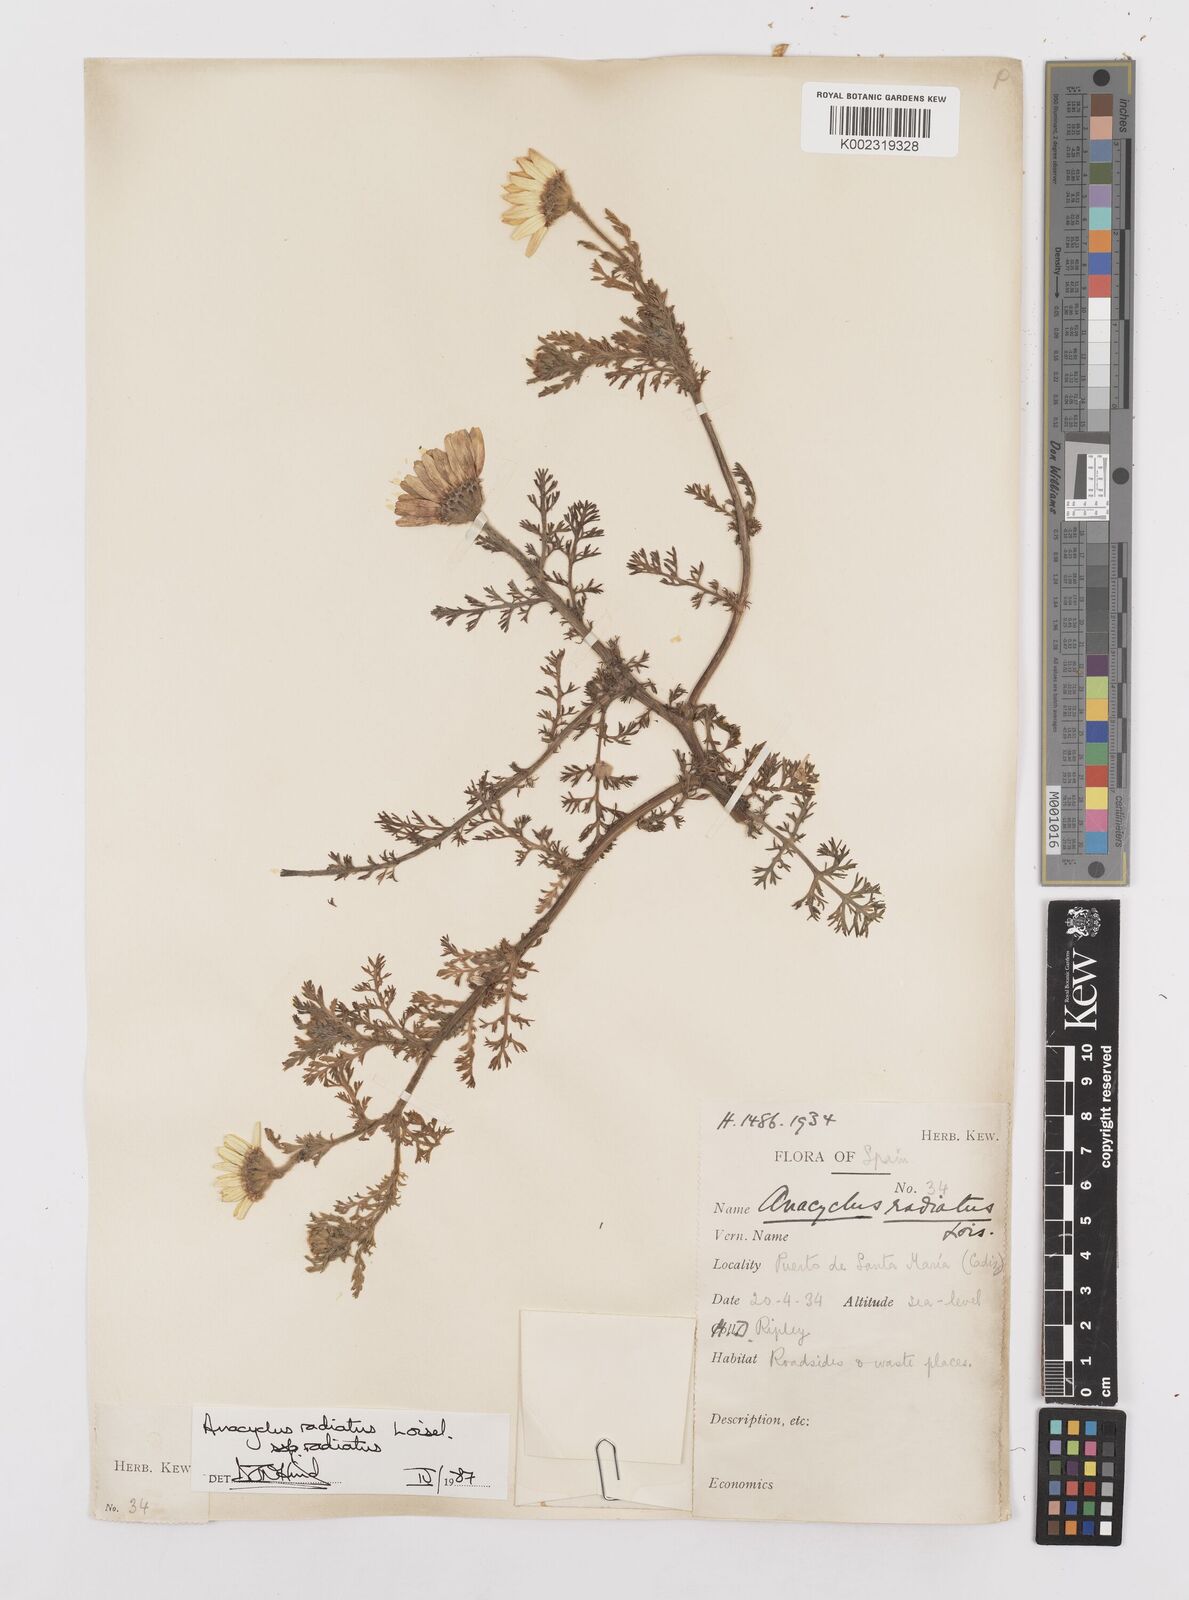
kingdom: Plantae
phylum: Tracheophyta
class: Magnoliopsida
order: Asterales
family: Asteraceae
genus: Anacyclus
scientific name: Anacyclus radiatus
